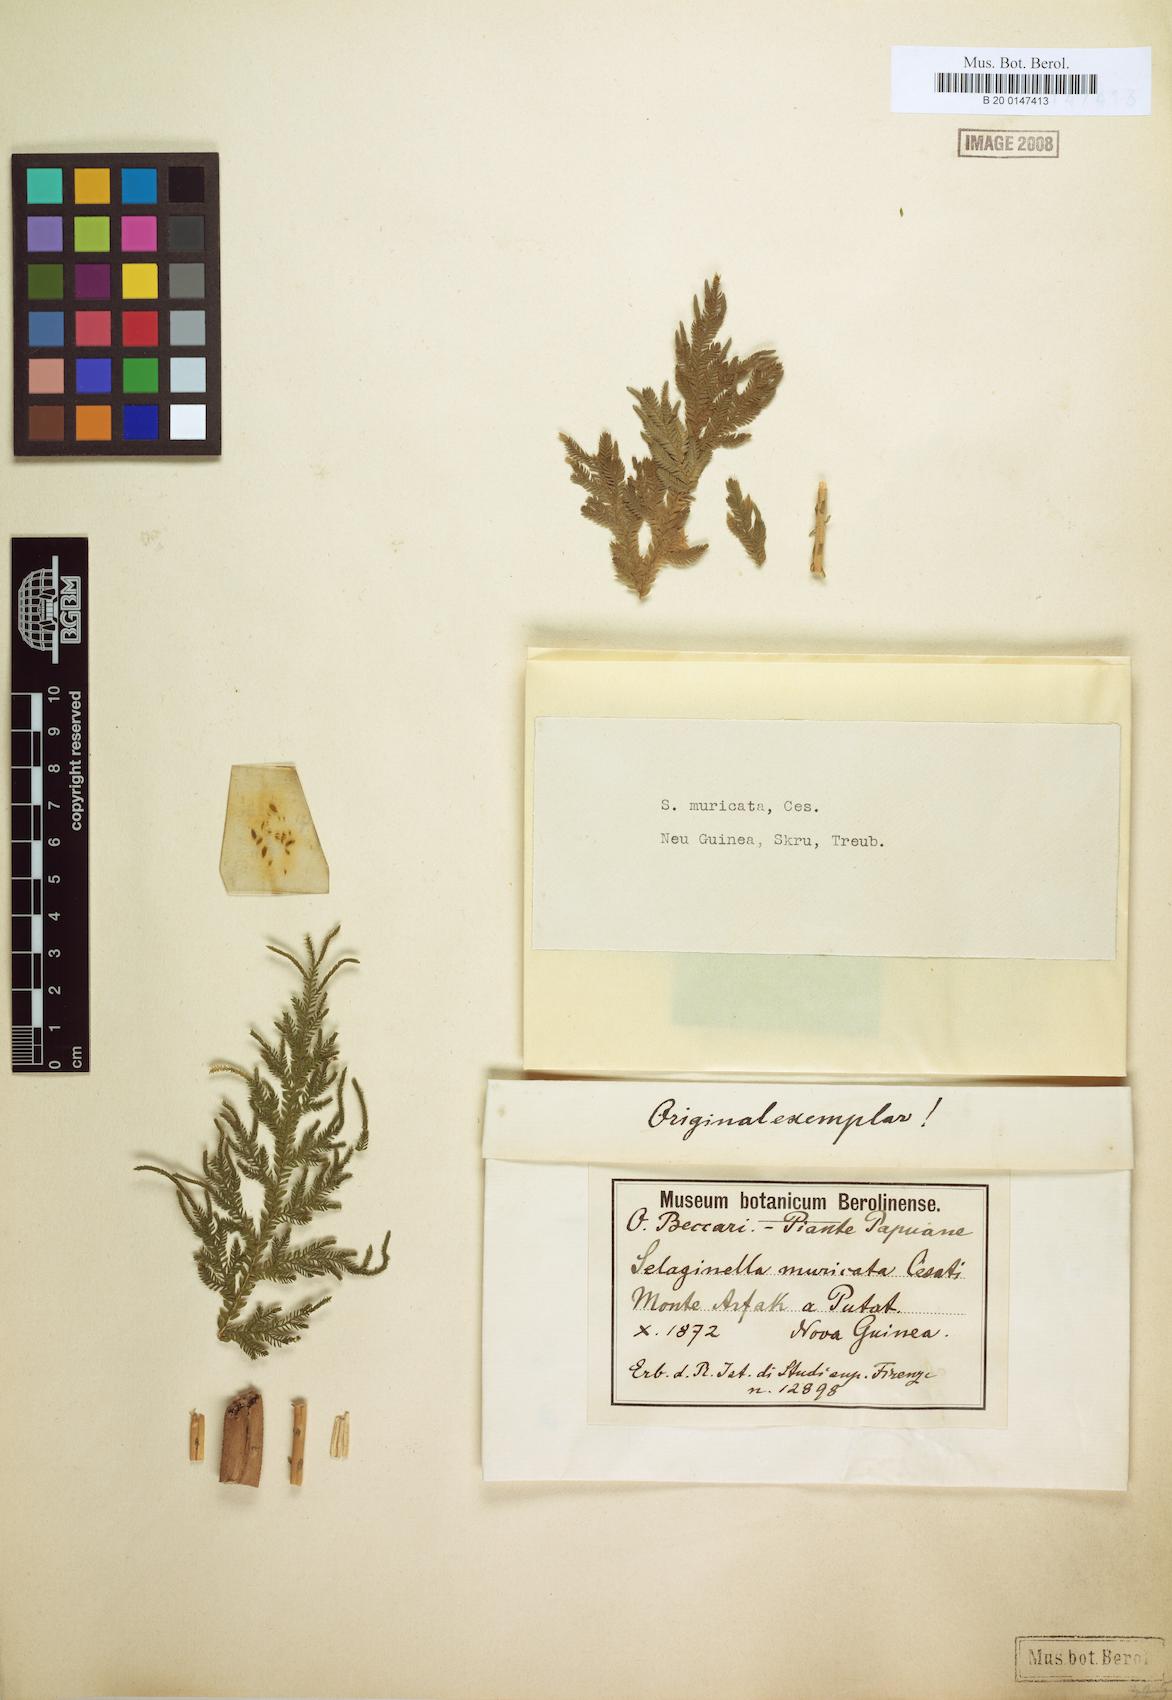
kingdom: Plantae
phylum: Tracheophyta
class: Lycopodiopsida
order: Selaginellales
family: Selaginellaceae
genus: Selaginella
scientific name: Selaginella caudata
